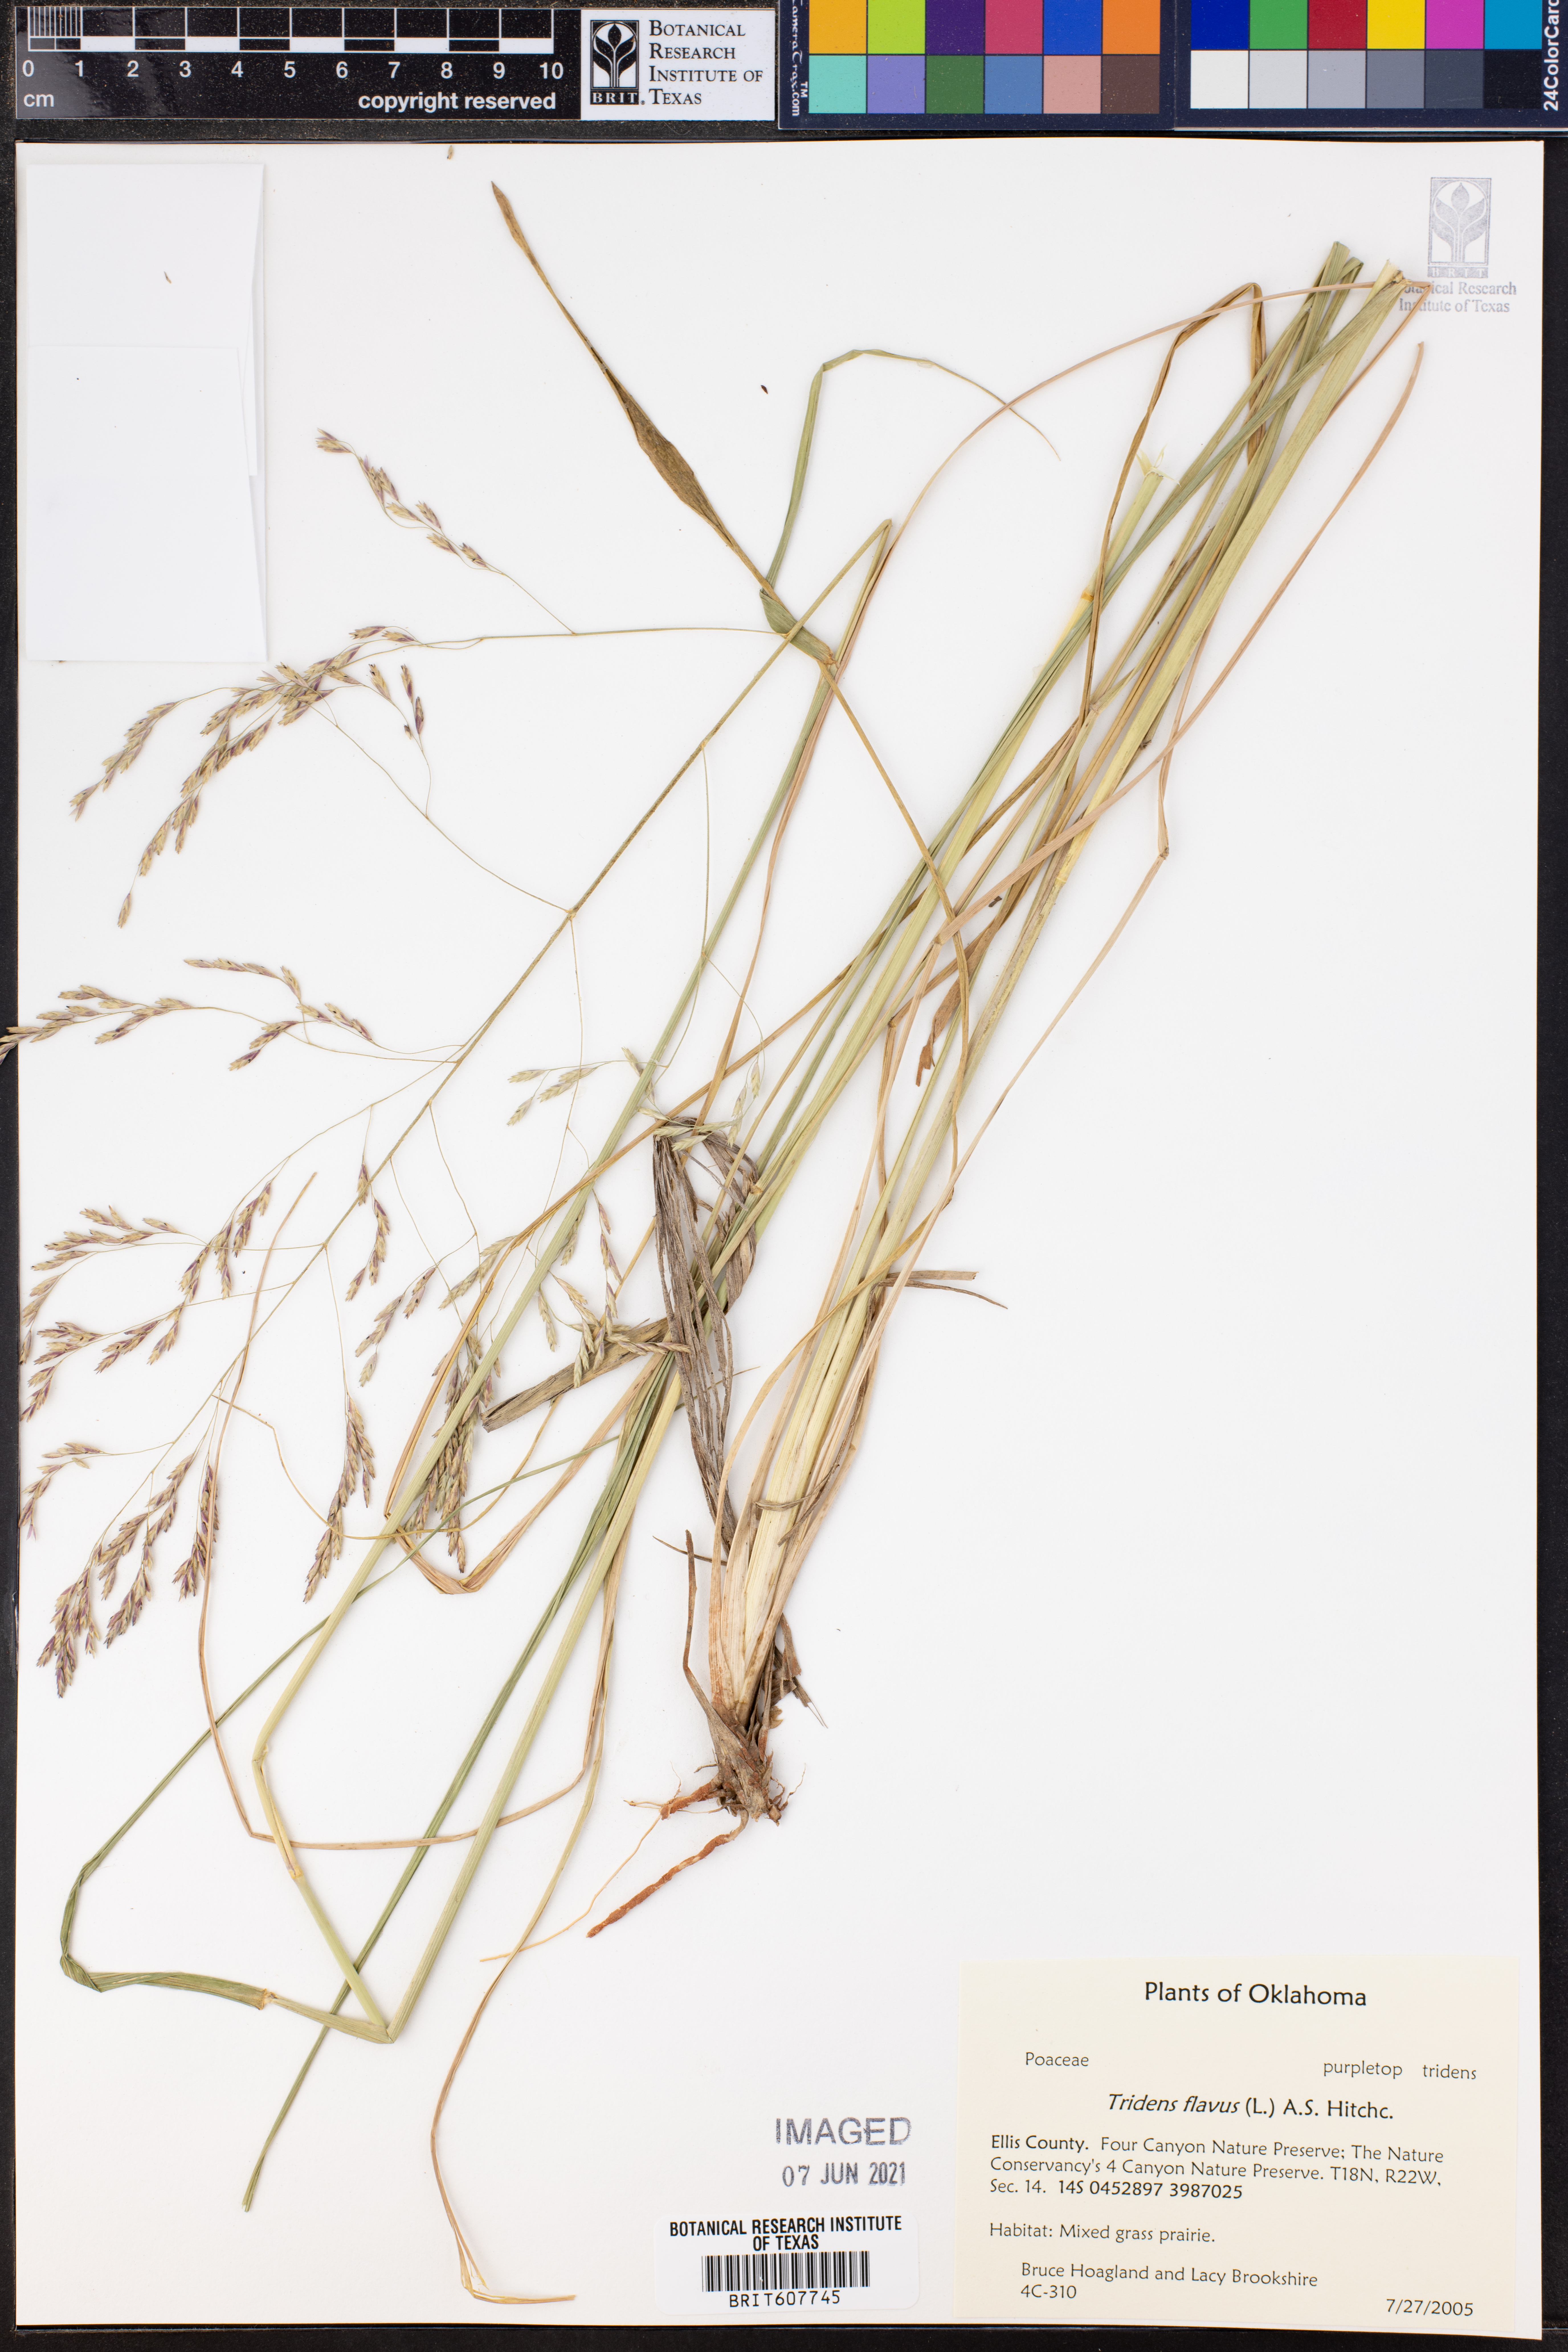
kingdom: Plantae
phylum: Tracheophyta
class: Liliopsida
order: Poales
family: Poaceae
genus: Tridens
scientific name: Tridens flavus
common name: Purpletop
